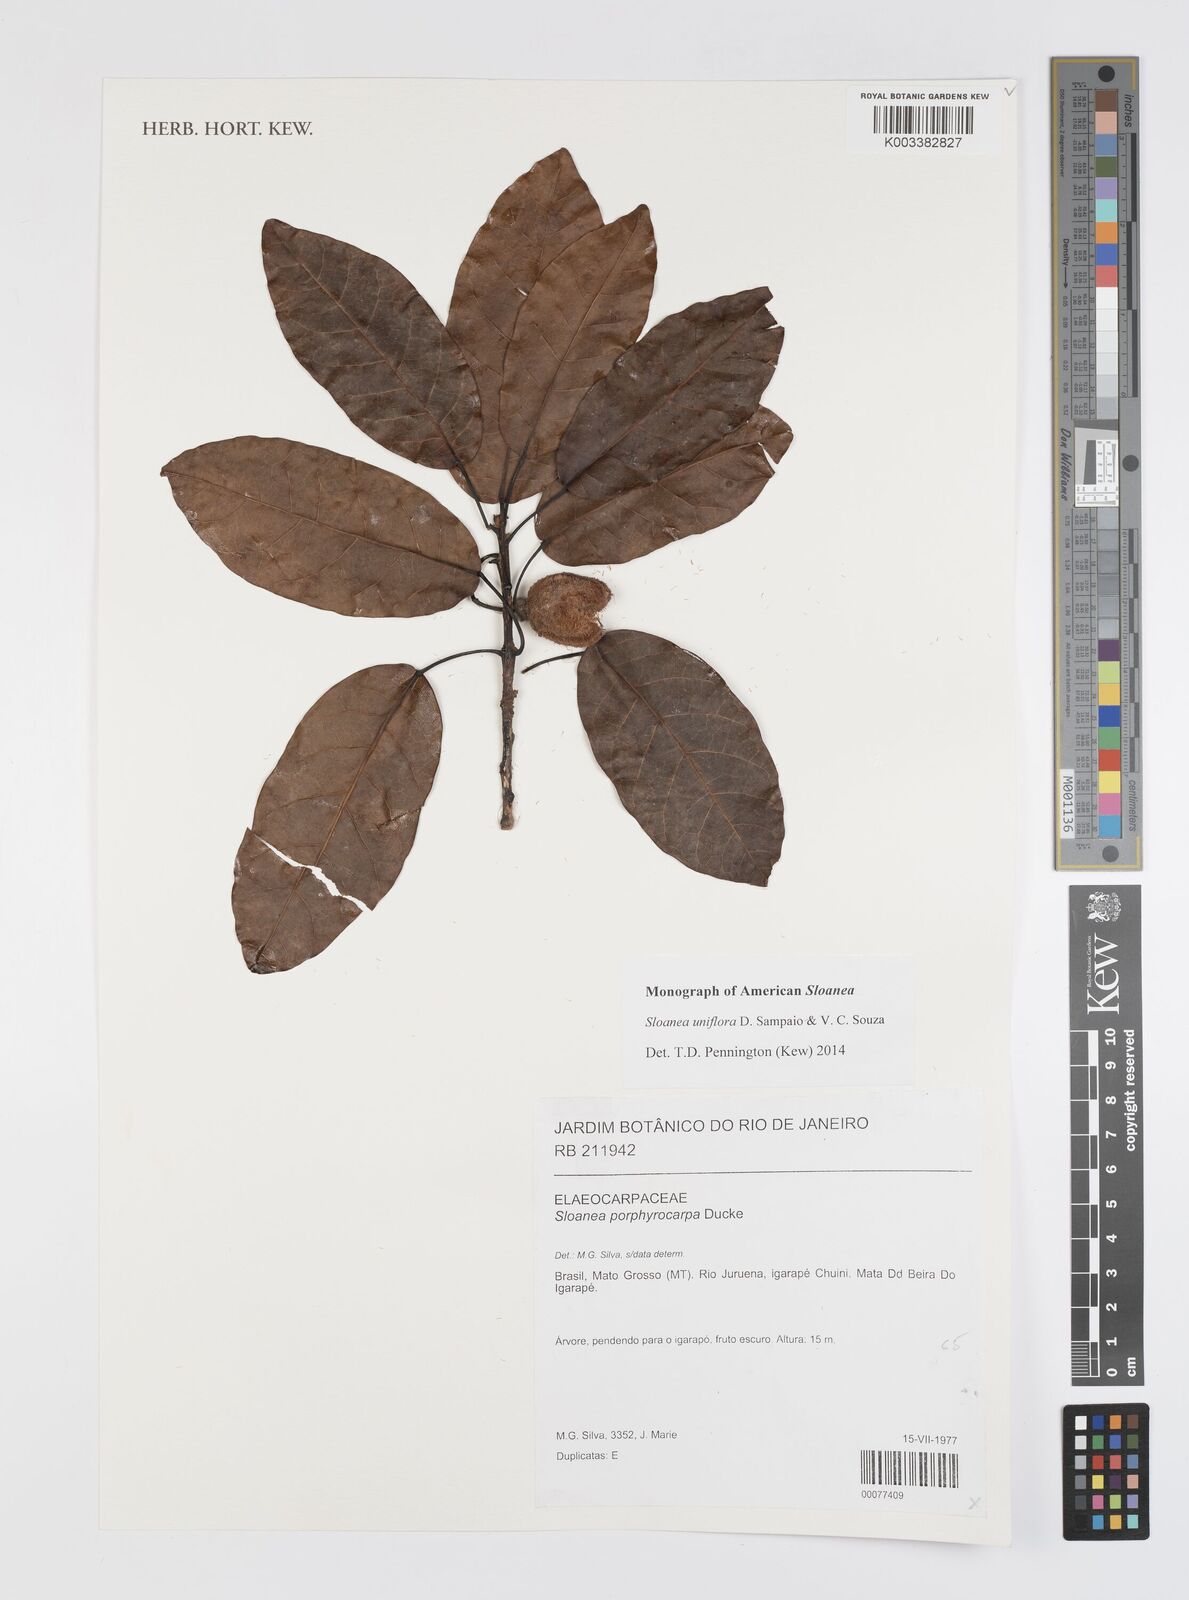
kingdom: Plantae
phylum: Tracheophyta
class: Magnoliopsida
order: Oxalidales
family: Elaeocarpaceae
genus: Sloanea
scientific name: Sloanea uniflora
